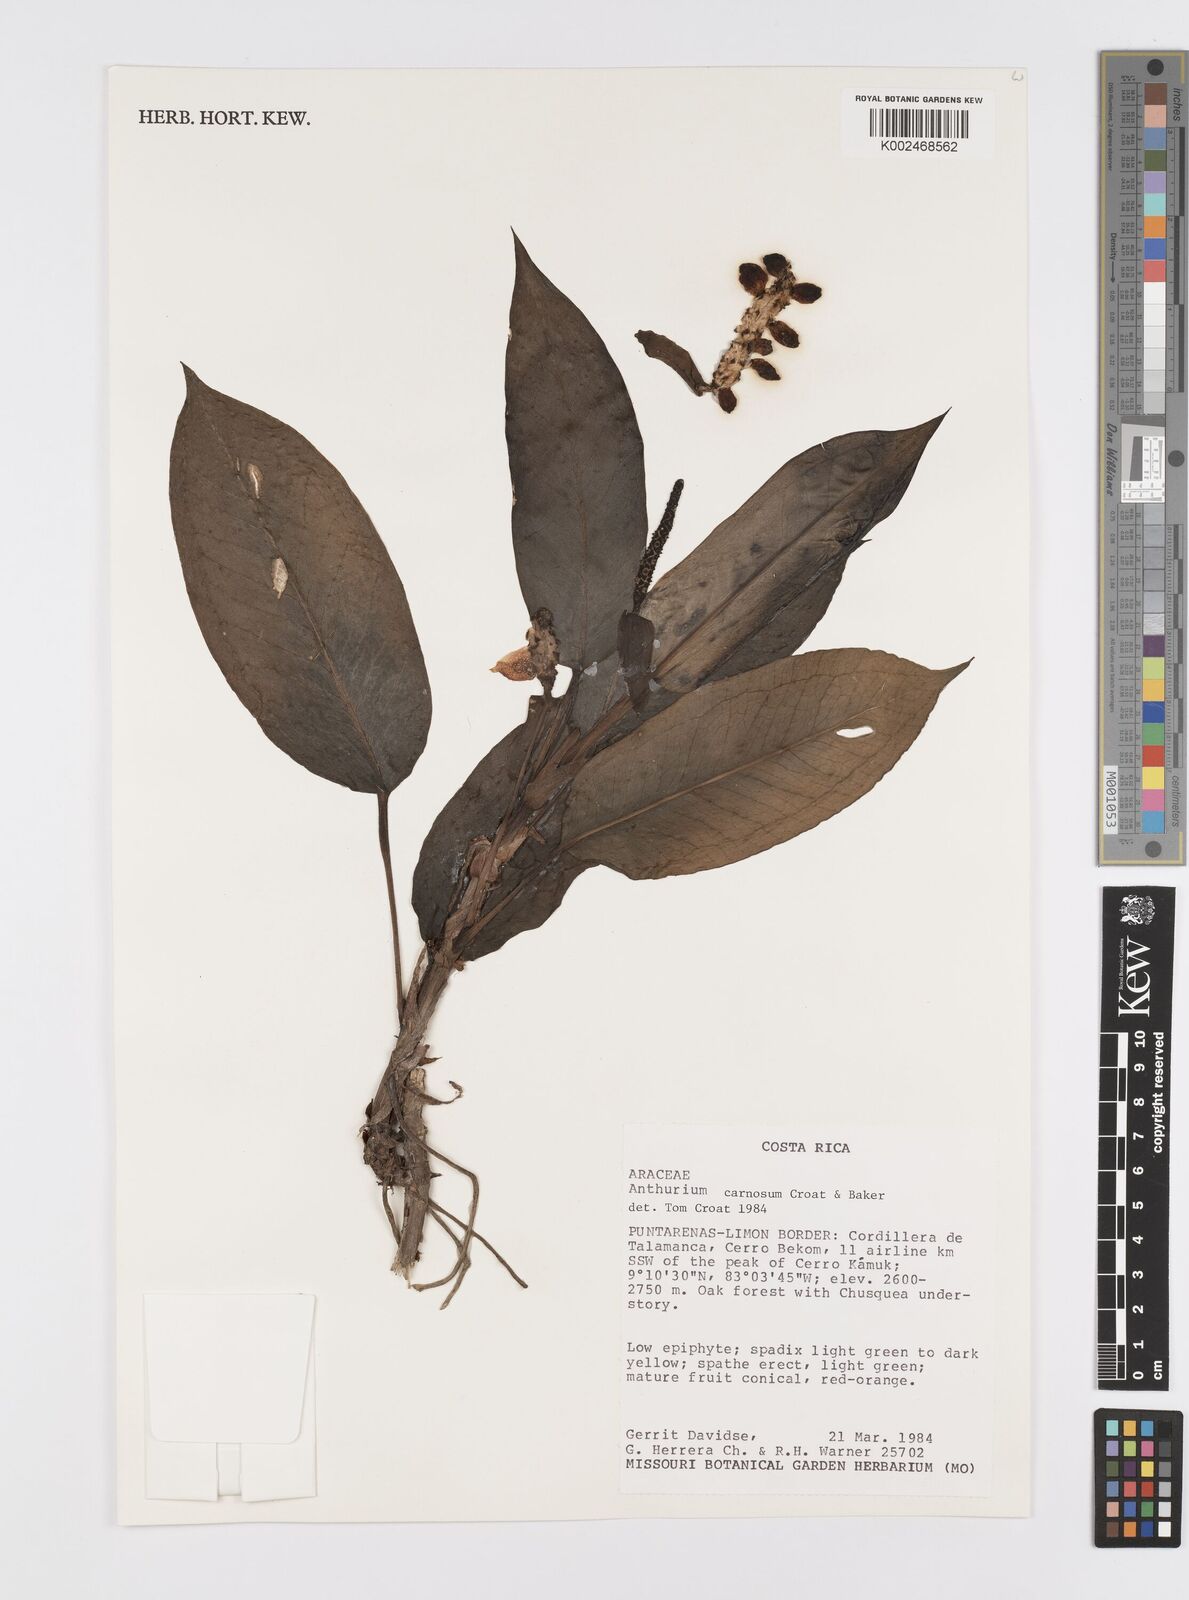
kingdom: Plantae
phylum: Tracheophyta
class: Liliopsida
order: Alismatales
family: Araceae
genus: Anthurium
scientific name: Anthurium carnosum
